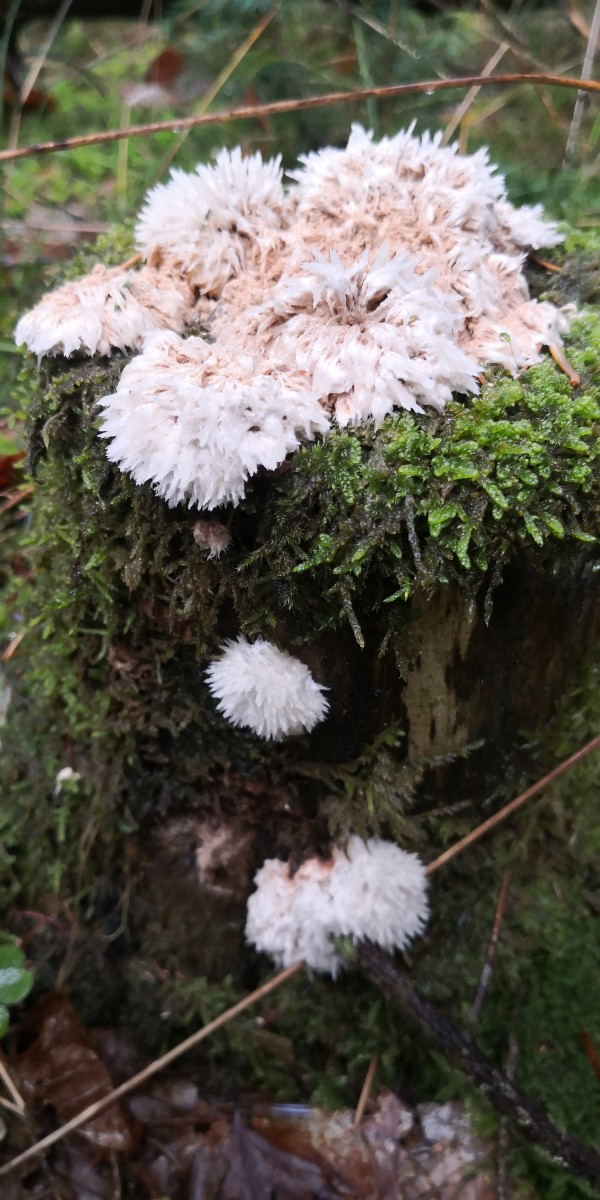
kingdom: Fungi
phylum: Basidiomycota
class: Agaricomycetes
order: Polyporales
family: Dacryobolaceae
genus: Postia
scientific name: Postia ptychogaster
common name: støvende kødporesvamp
